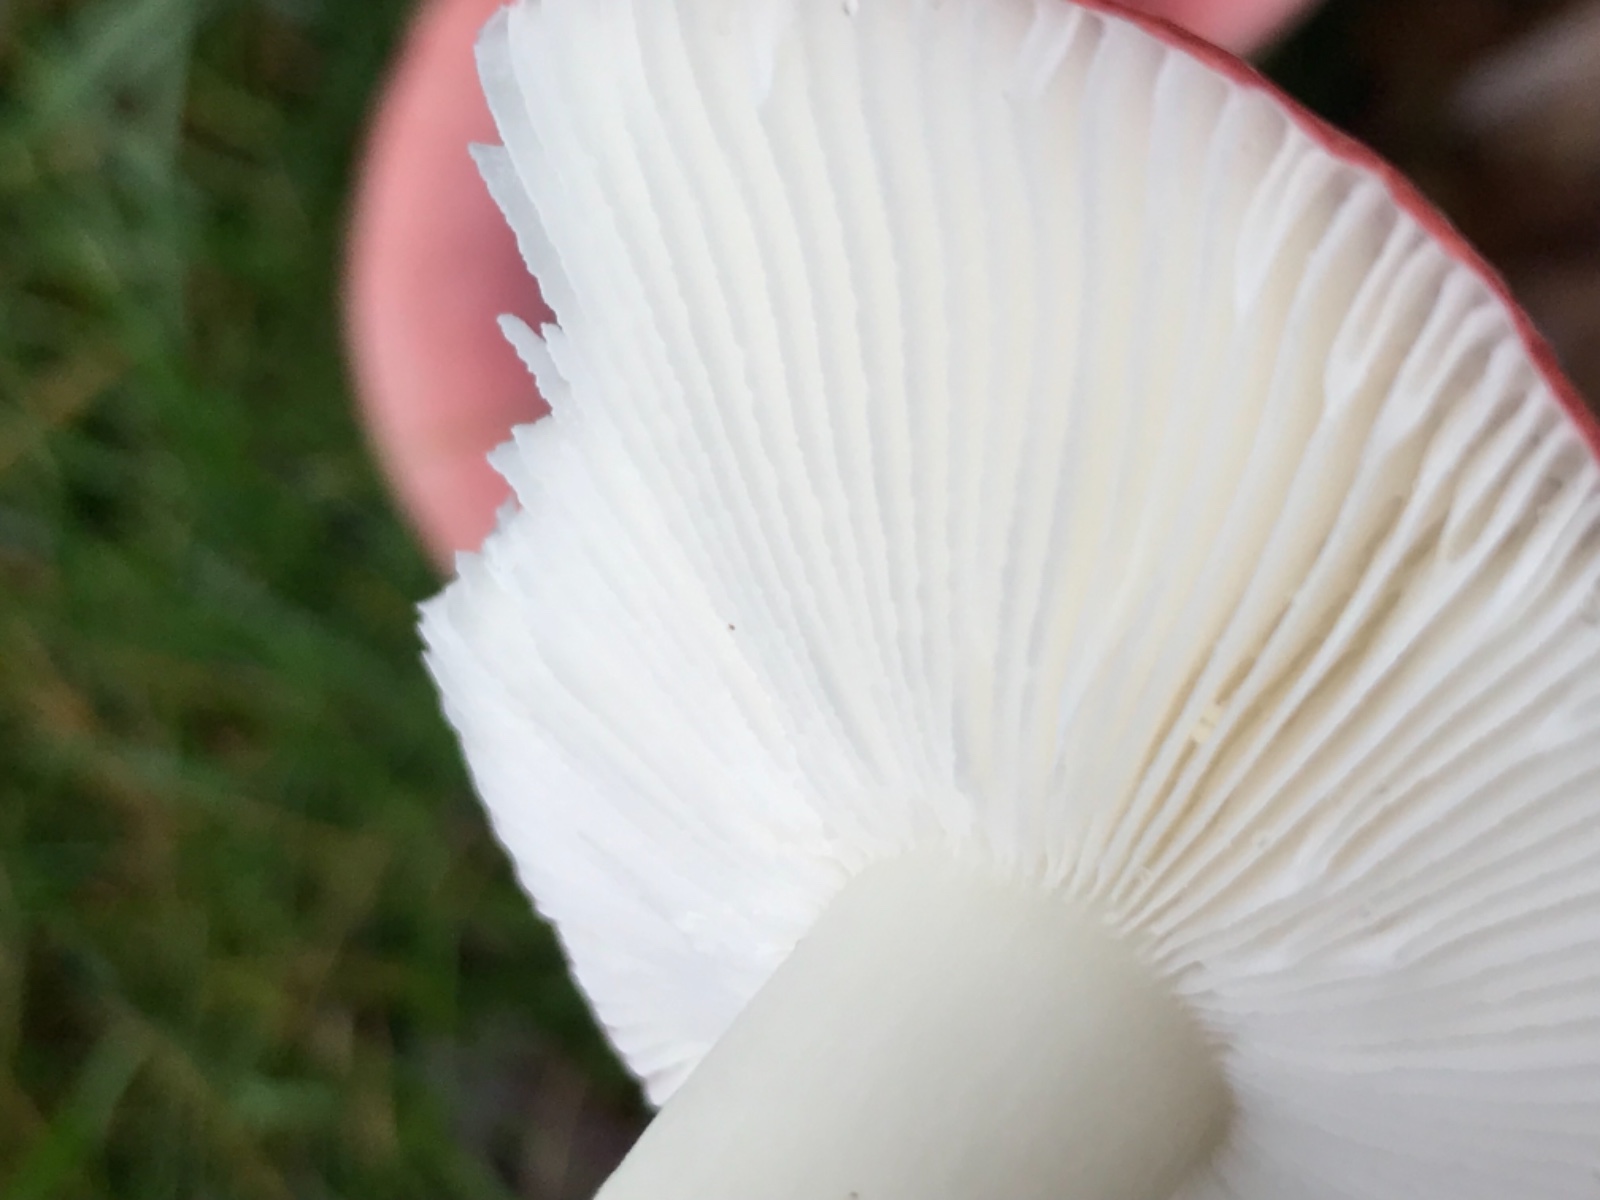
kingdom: Fungi
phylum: Basidiomycota
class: Agaricomycetes
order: Russulales
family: Russulaceae
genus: Russula
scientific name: Russula fragilis
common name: savbladet skørhat
